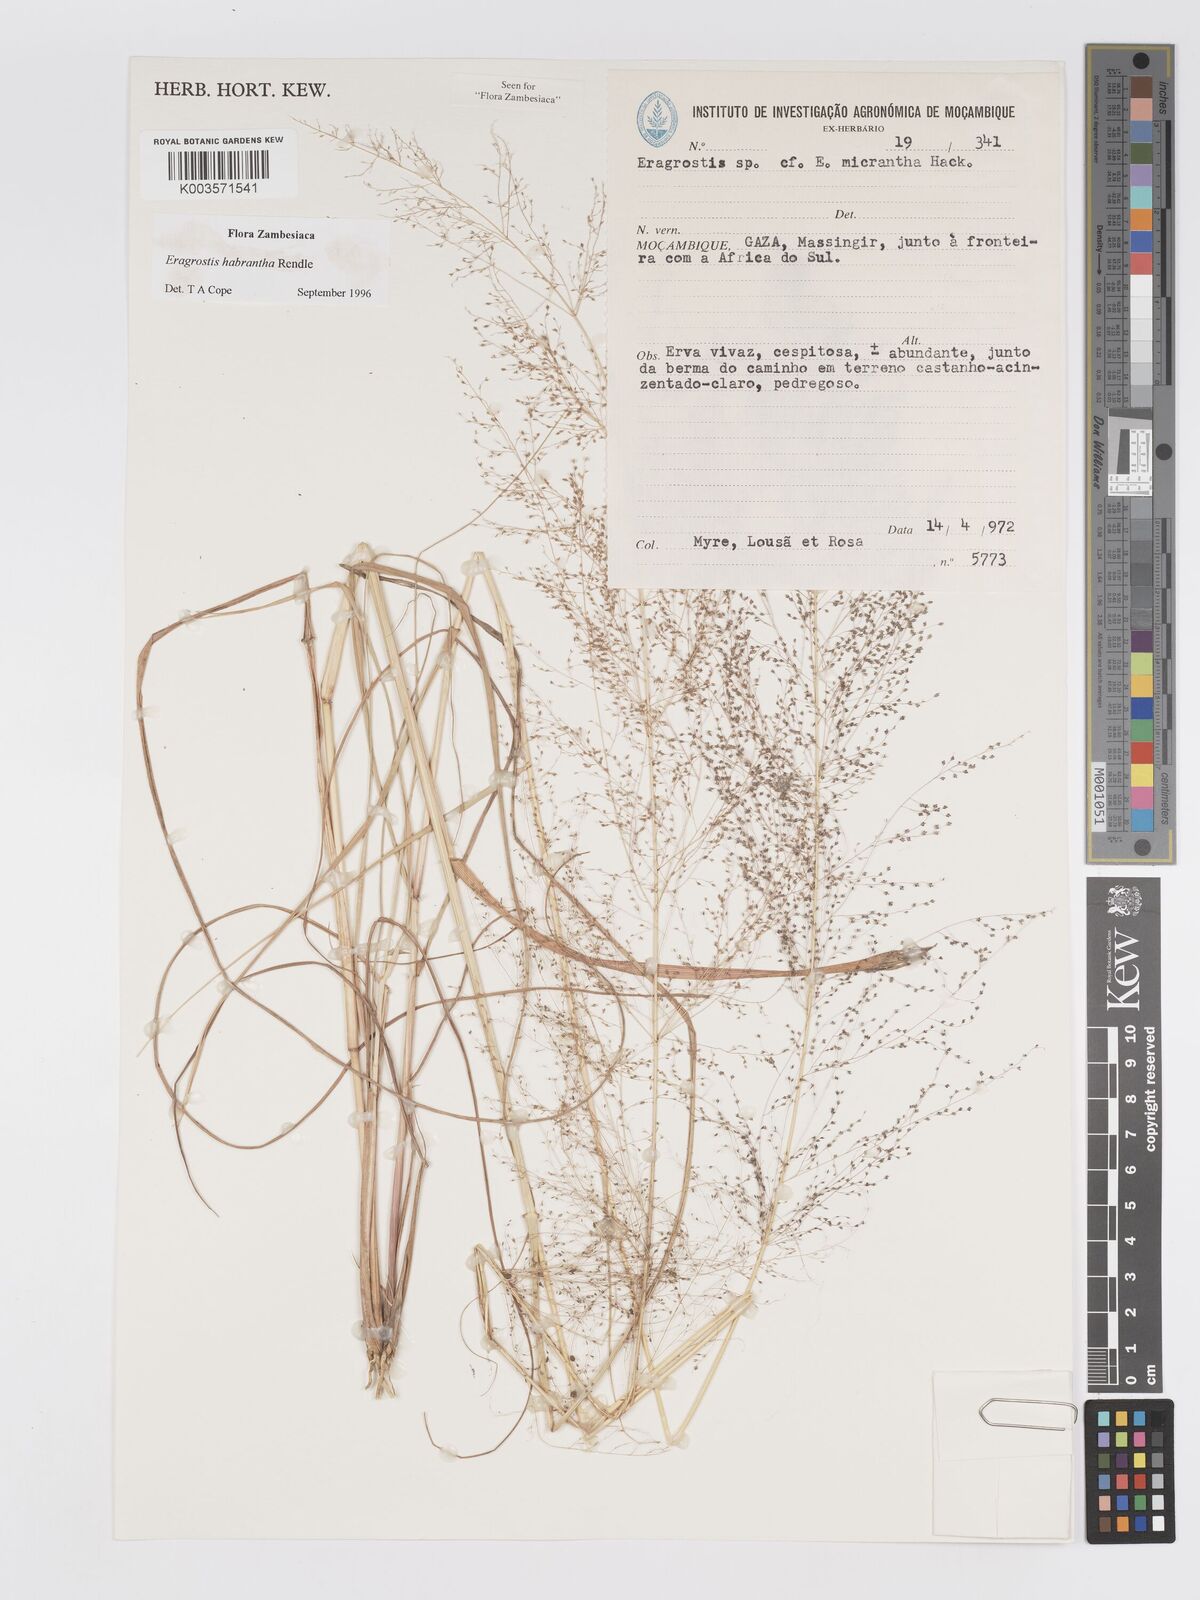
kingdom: Plantae
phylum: Tracheophyta
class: Liliopsida
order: Poales
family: Poaceae
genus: Eragrostis
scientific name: Eragrostis habrantha
